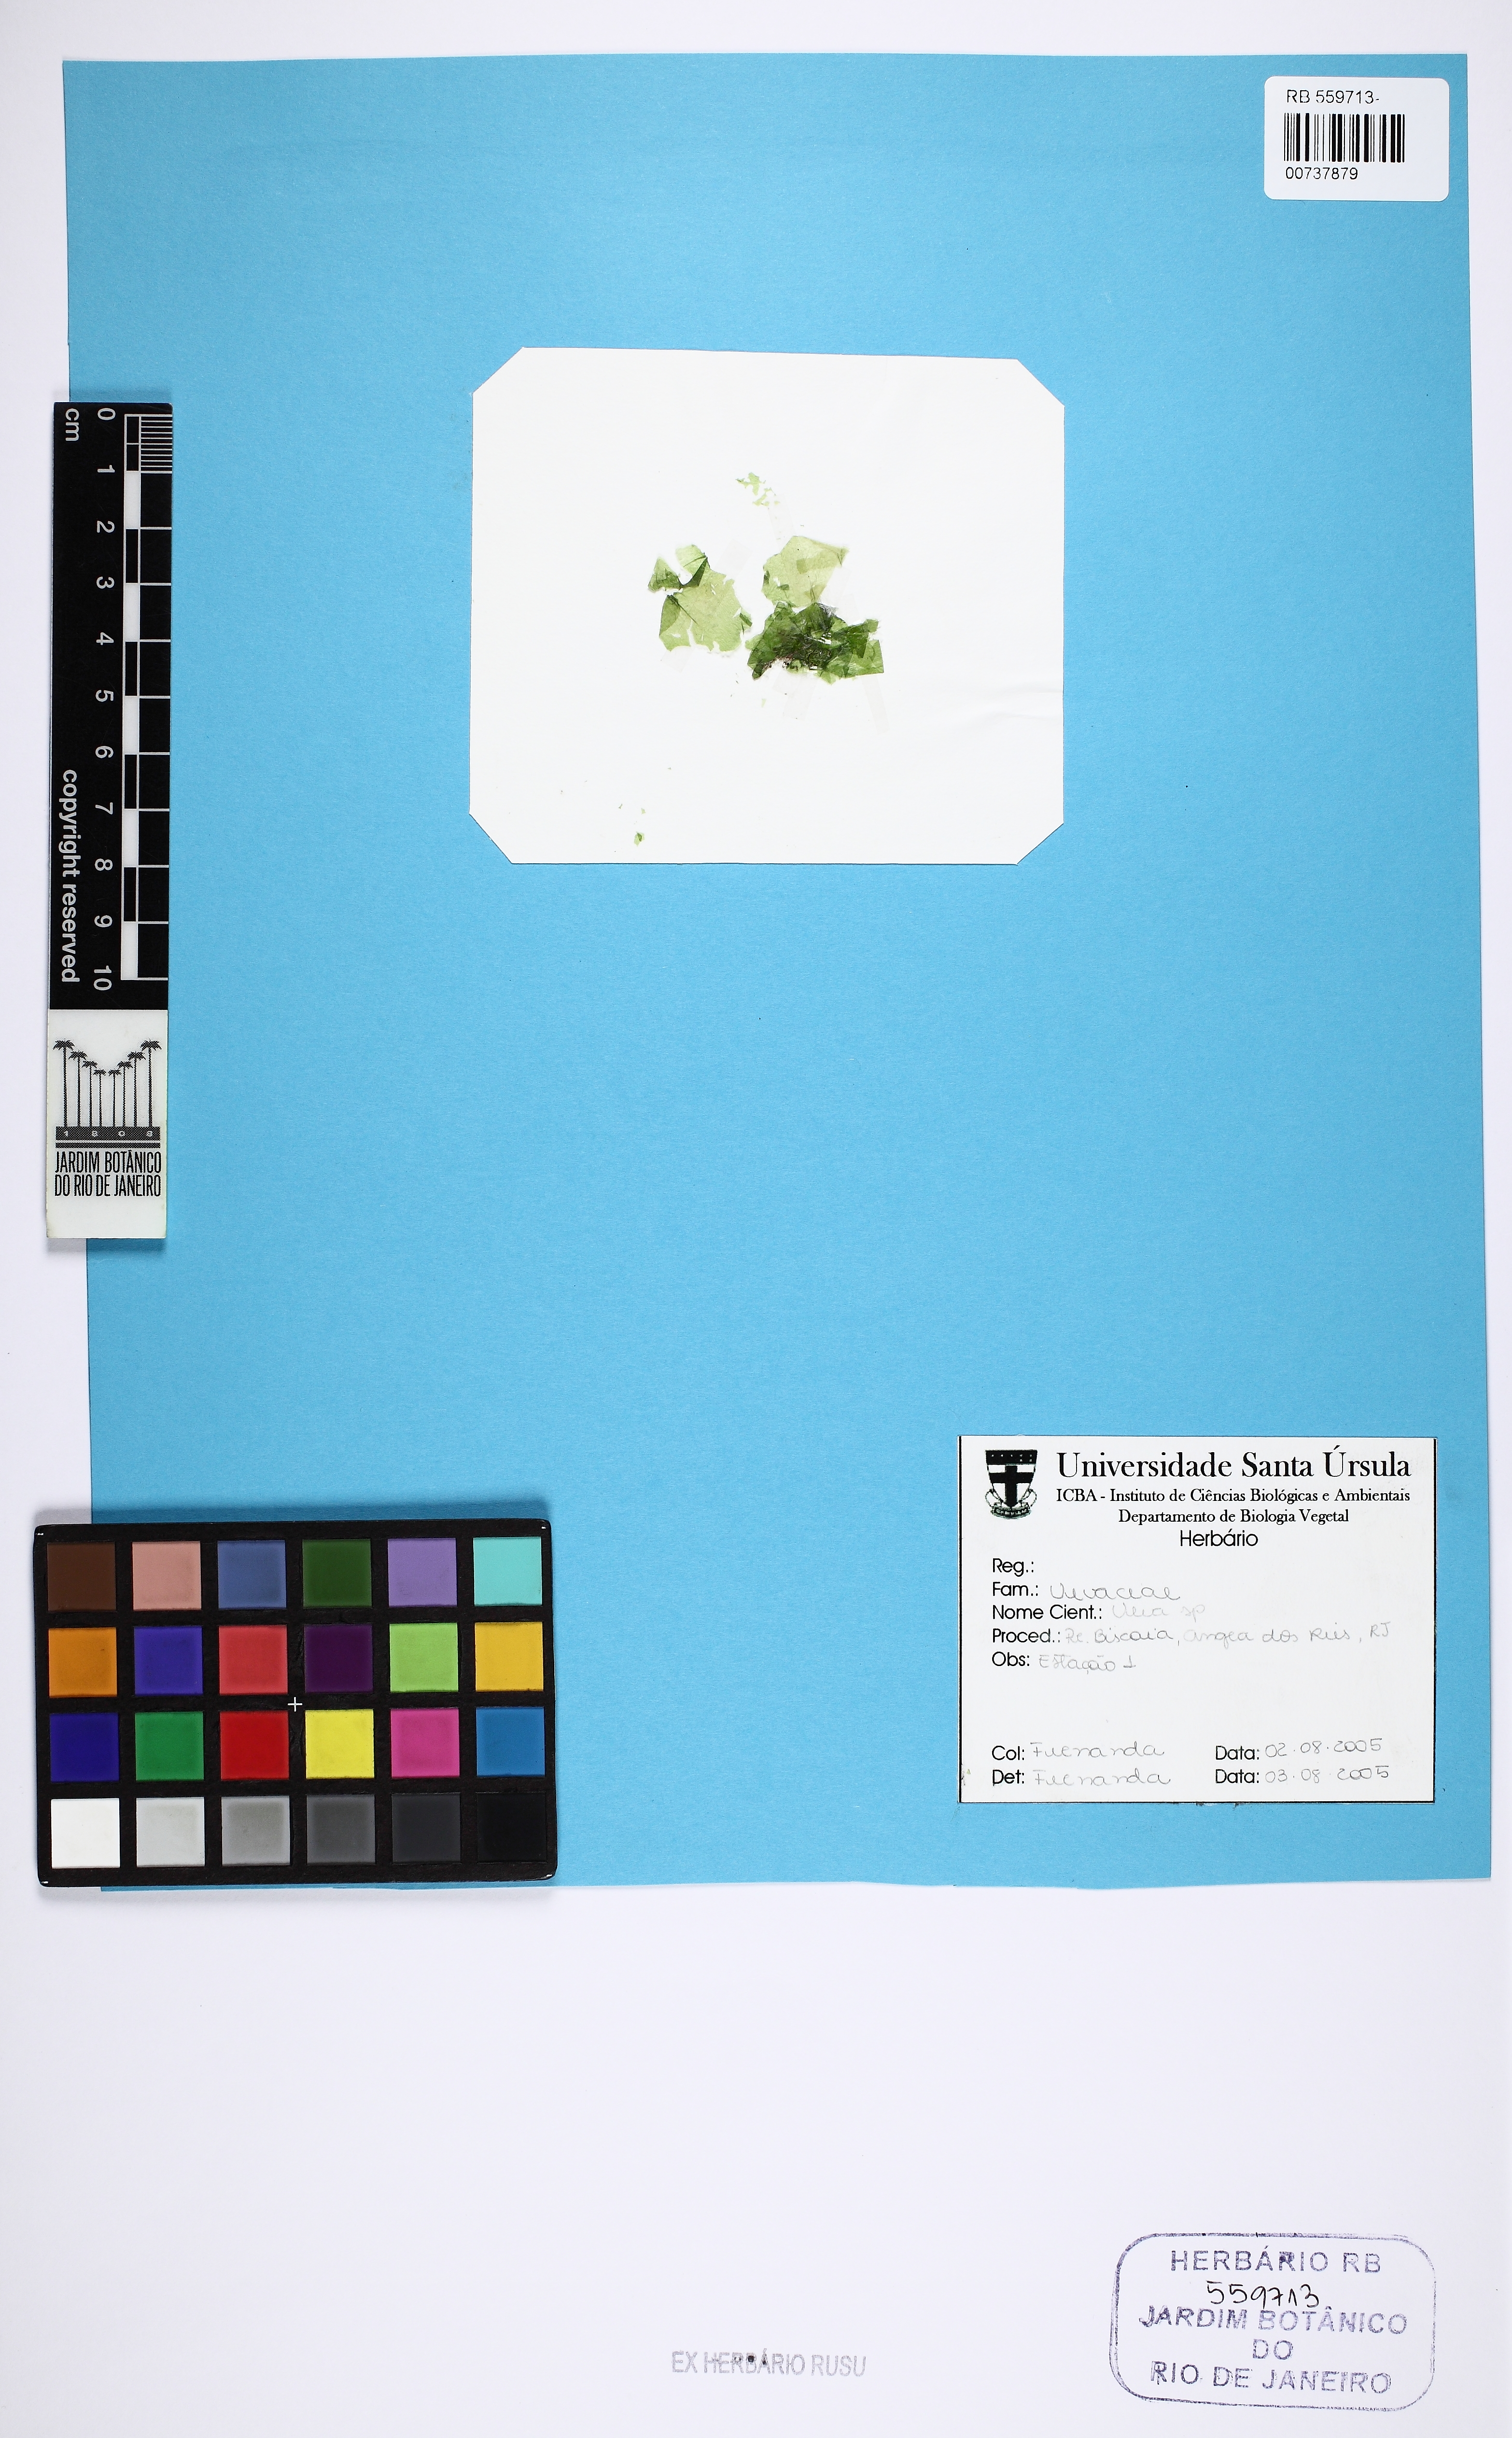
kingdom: Plantae
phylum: Chlorophyta
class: Ulvophyceae
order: Ulvales
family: Ulvaceae
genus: Ulva
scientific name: Ulva
